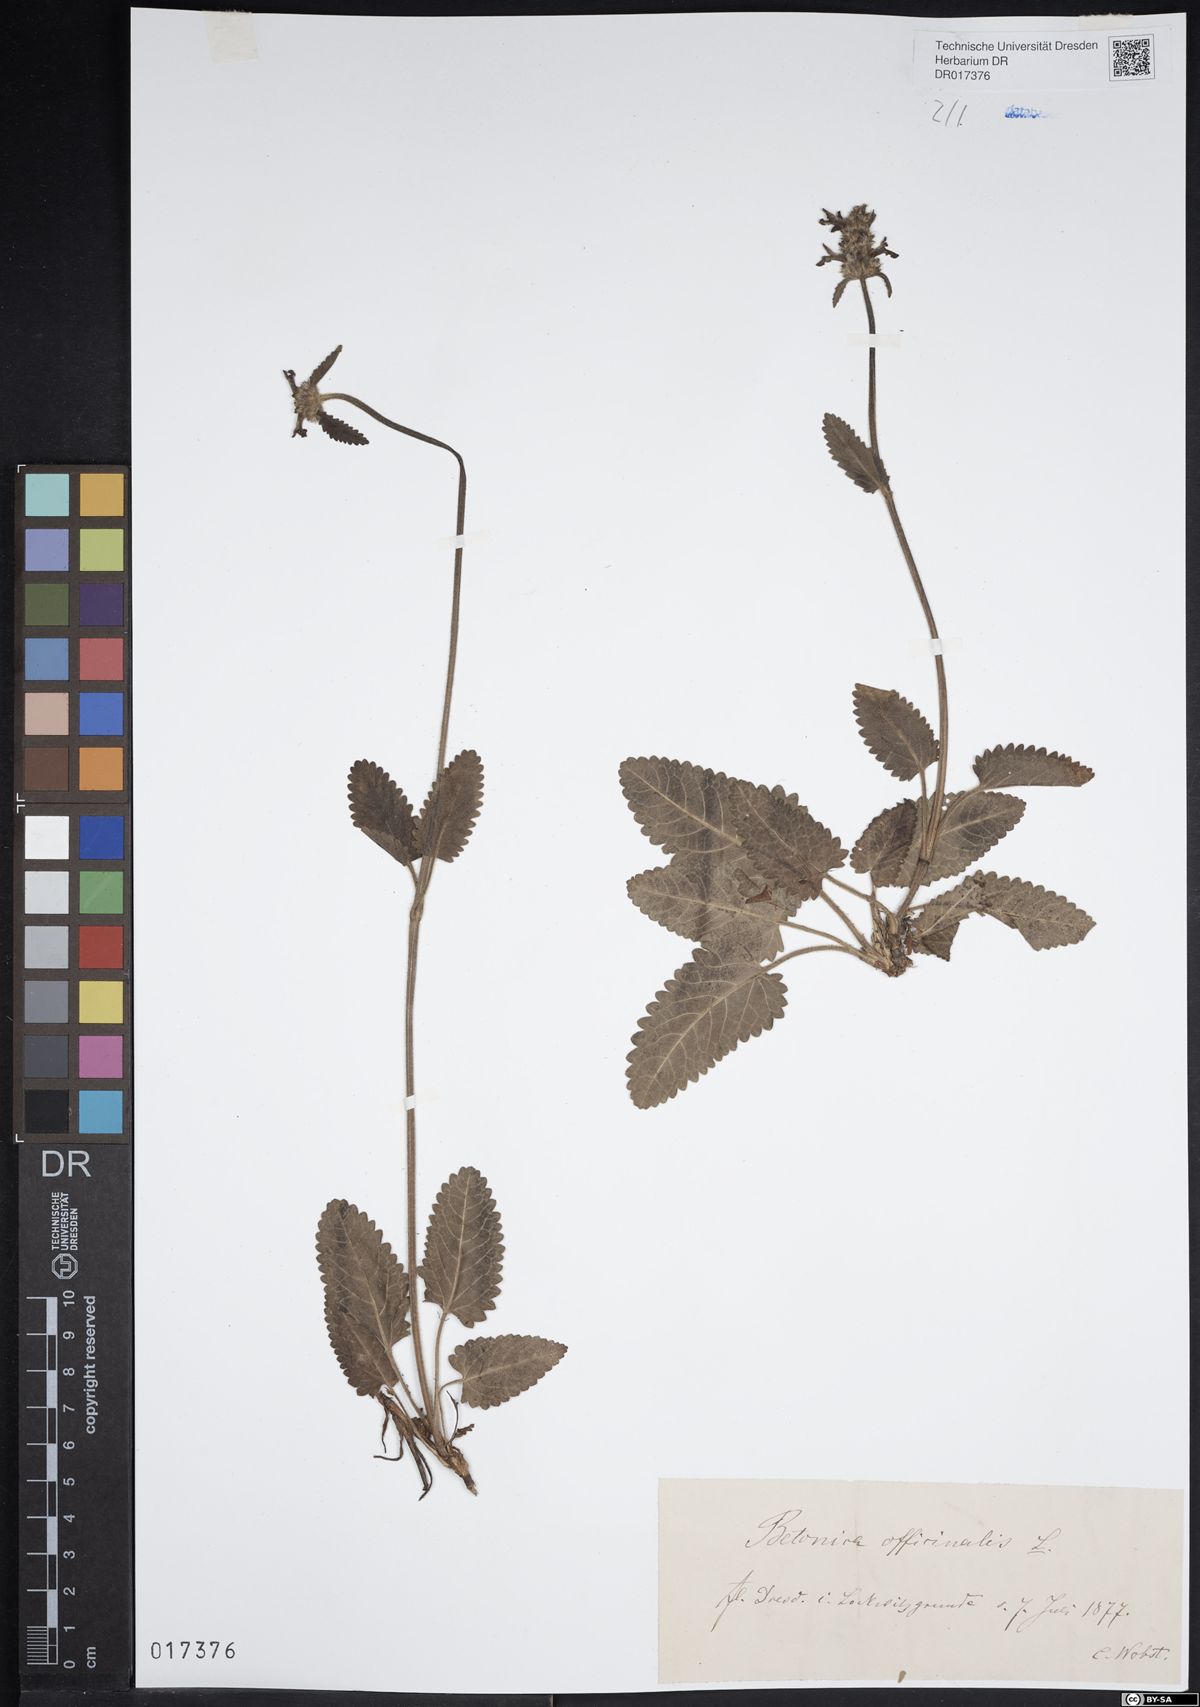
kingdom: Plantae
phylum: Tracheophyta
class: Magnoliopsida
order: Lamiales
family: Lamiaceae
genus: Betonica
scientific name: Betonica officinalis
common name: Bishop's-wort
